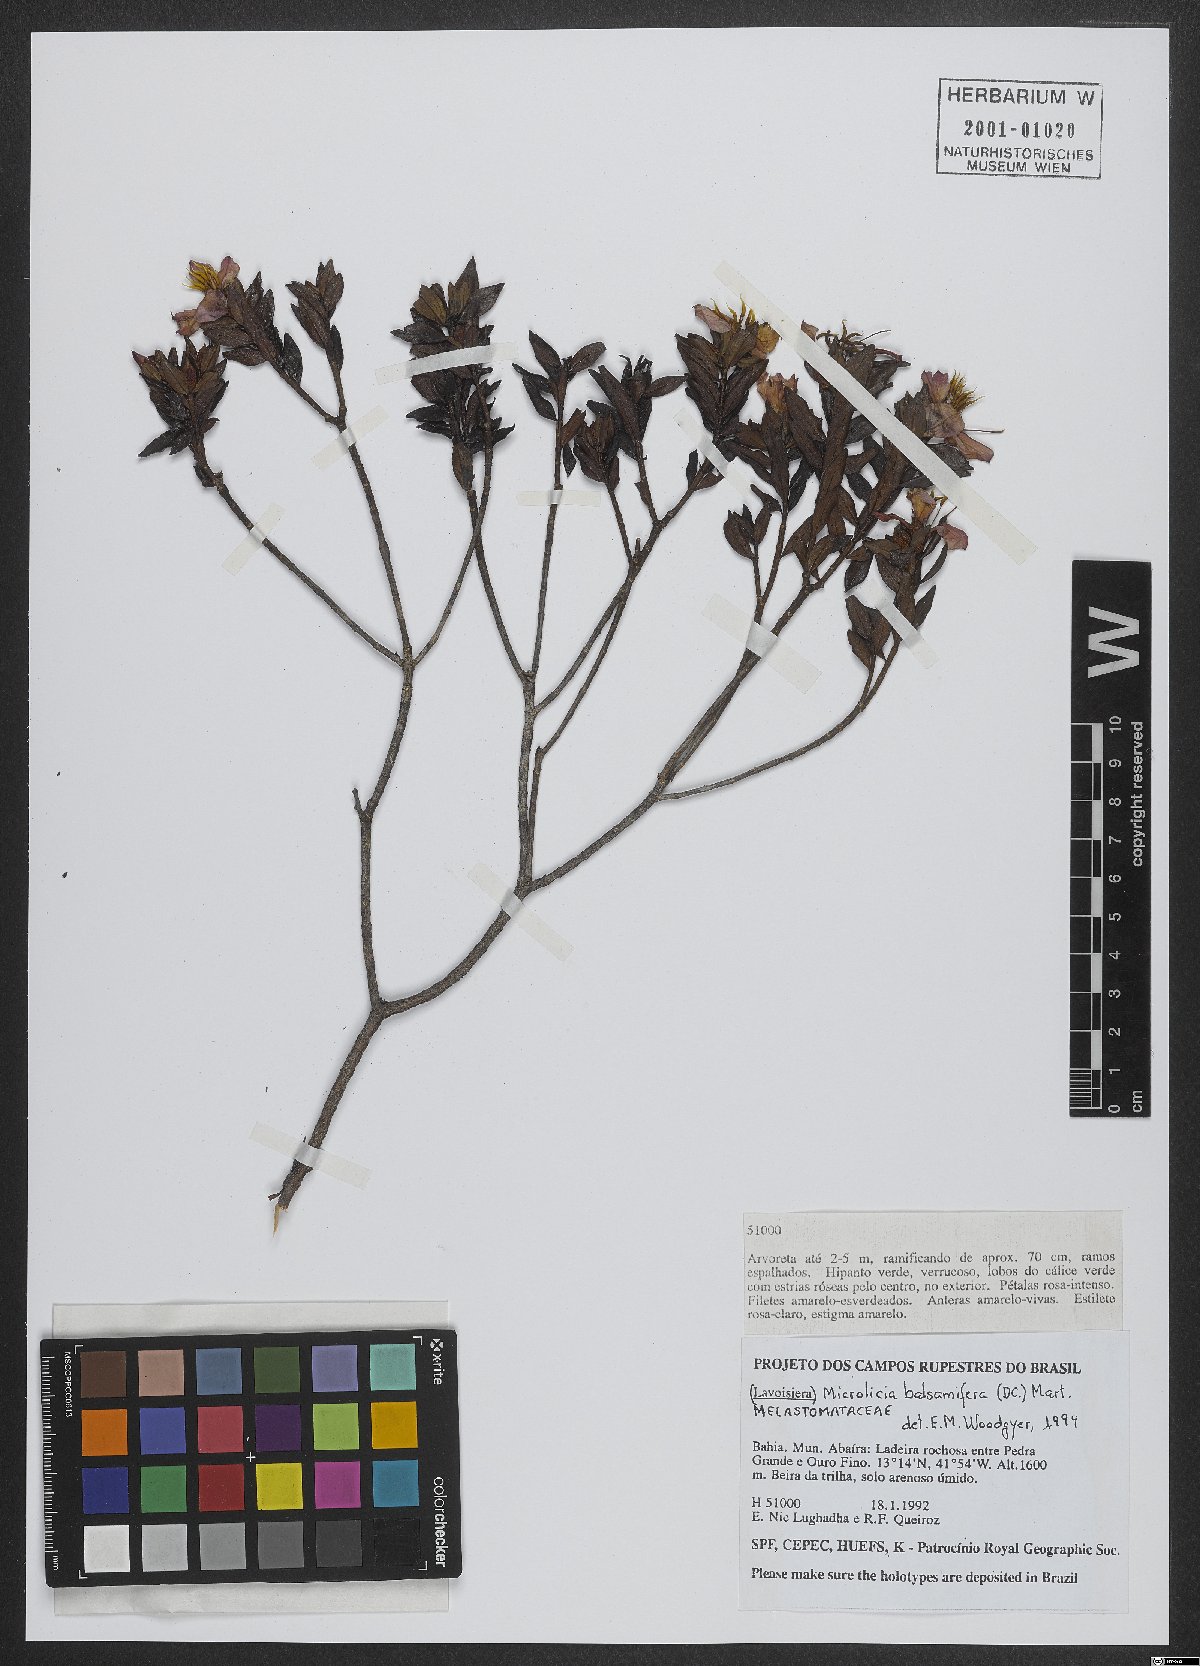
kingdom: Plantae
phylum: Tracheophyta
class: Magnoliopsida
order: Myrtales
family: Melastomataceae
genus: Microlicia
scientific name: Microlicia balsamifera
